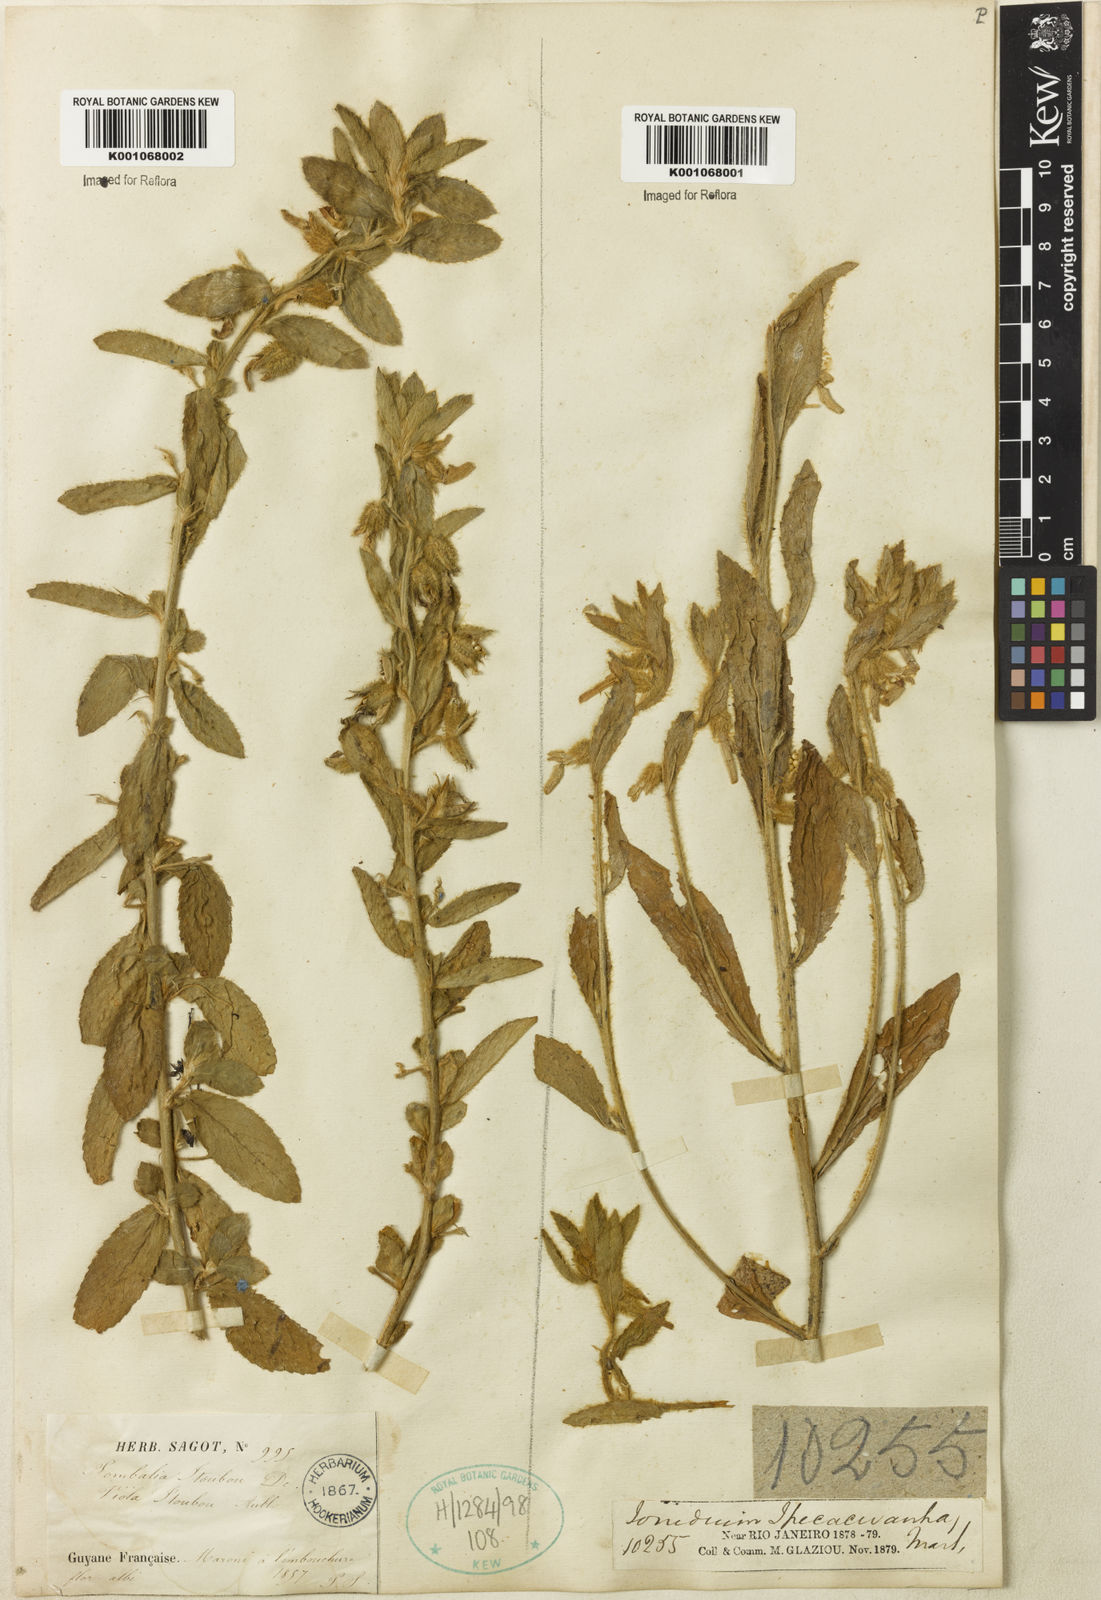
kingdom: Plantae
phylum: Tracheophyta
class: Magnoliopsida
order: Malpighiales
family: Violaceae
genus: Hybanthus
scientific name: Hybanthus
